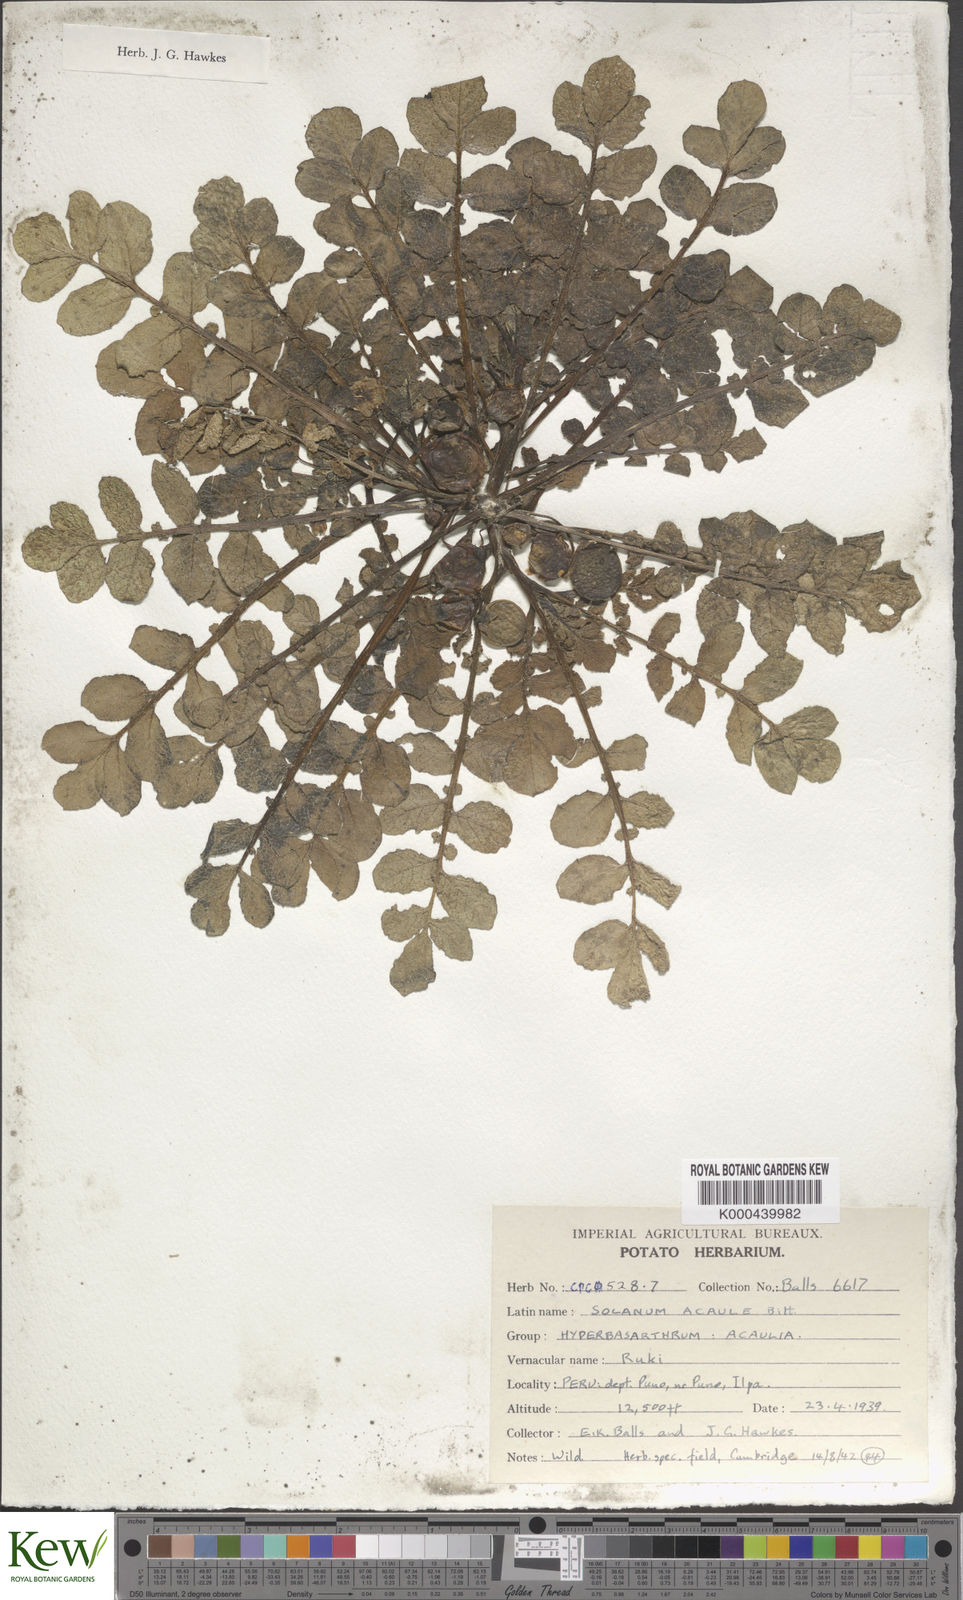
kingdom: Plantae
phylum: Tracheophyta
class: Magnoliopsida
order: Solanales
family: Solanaceae
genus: Solanum
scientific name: Solanum acaule
